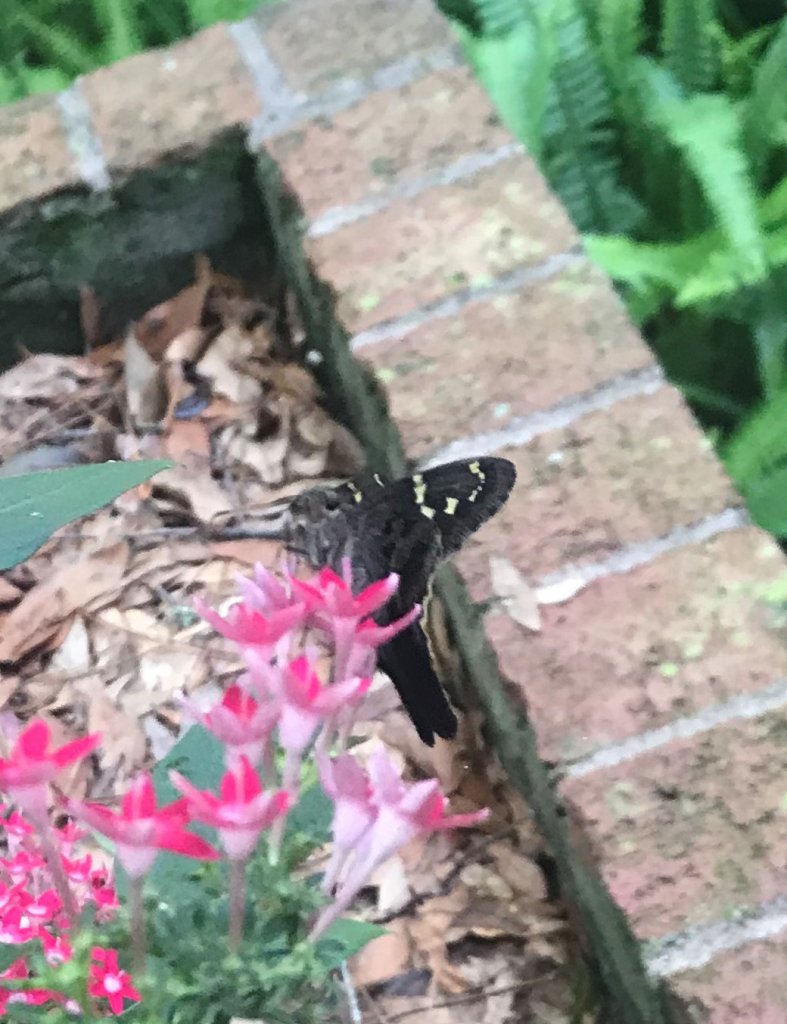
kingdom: Animalia
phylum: Arthropoda
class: Insecta
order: Lepidoptera
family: Hesperiidae
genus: Urbanus
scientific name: Urbanus proteus
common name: Long-tailed Skipper
